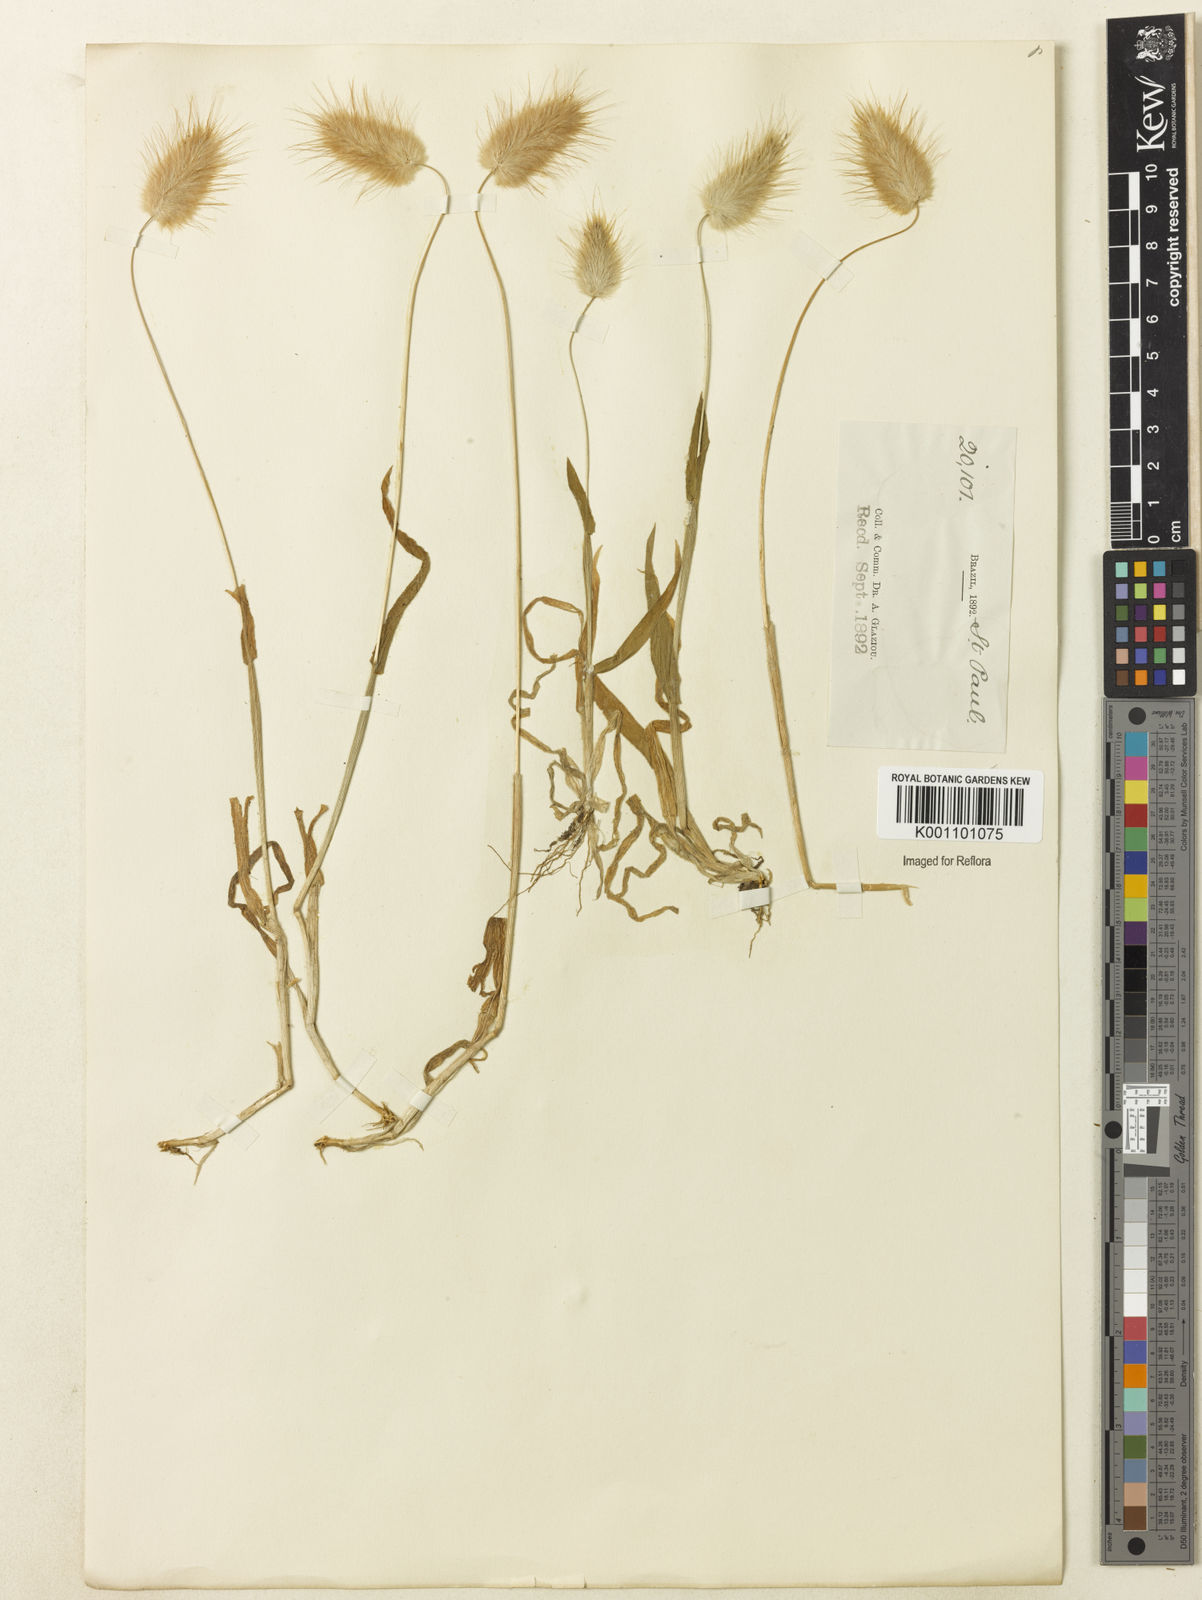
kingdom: Plantae
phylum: Tracheophyta
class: Liliopsida
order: Poales
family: Poaceae
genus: Lagurus
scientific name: Lagurus ovatus
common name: Hare's-tail
